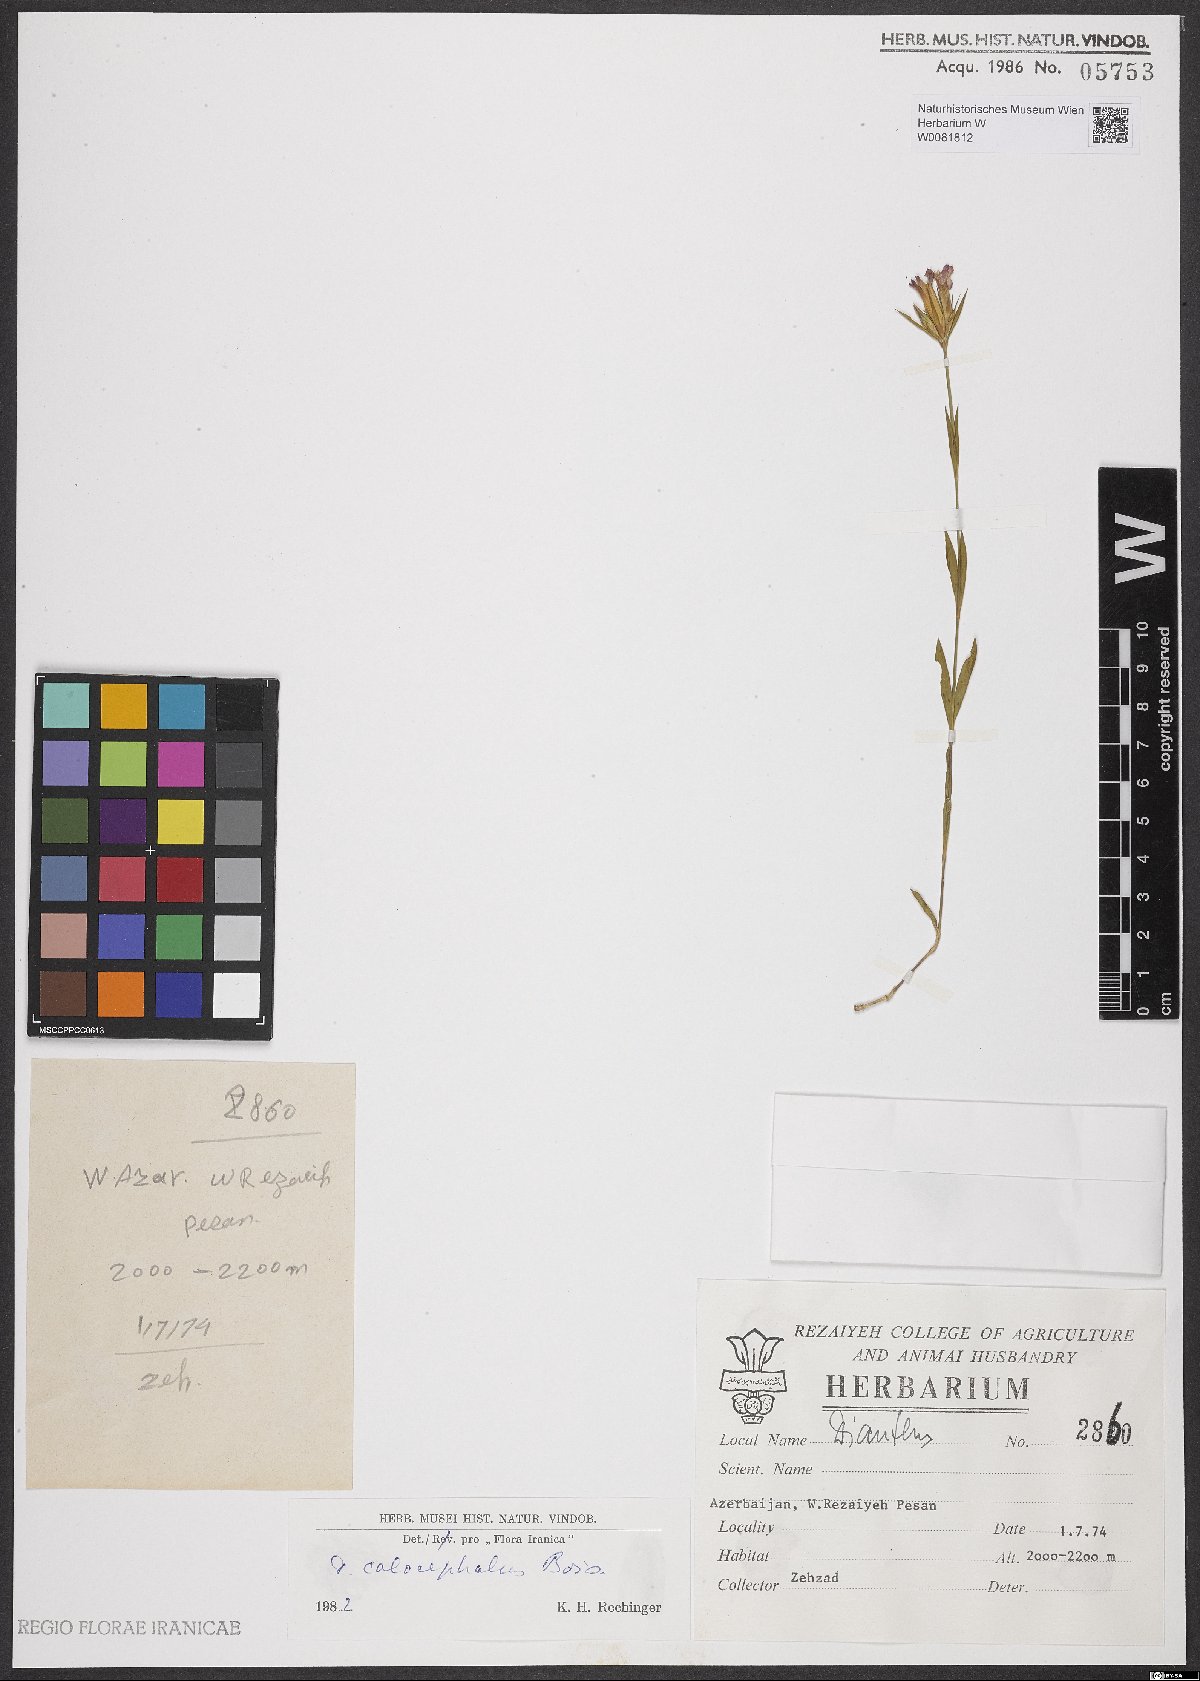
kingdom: Plantae
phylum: Tracheophyta
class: Magnoliopsida
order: Caryophyllales
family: Caryophyllaceae
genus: Dianthus
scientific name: Dianthus cruentus
